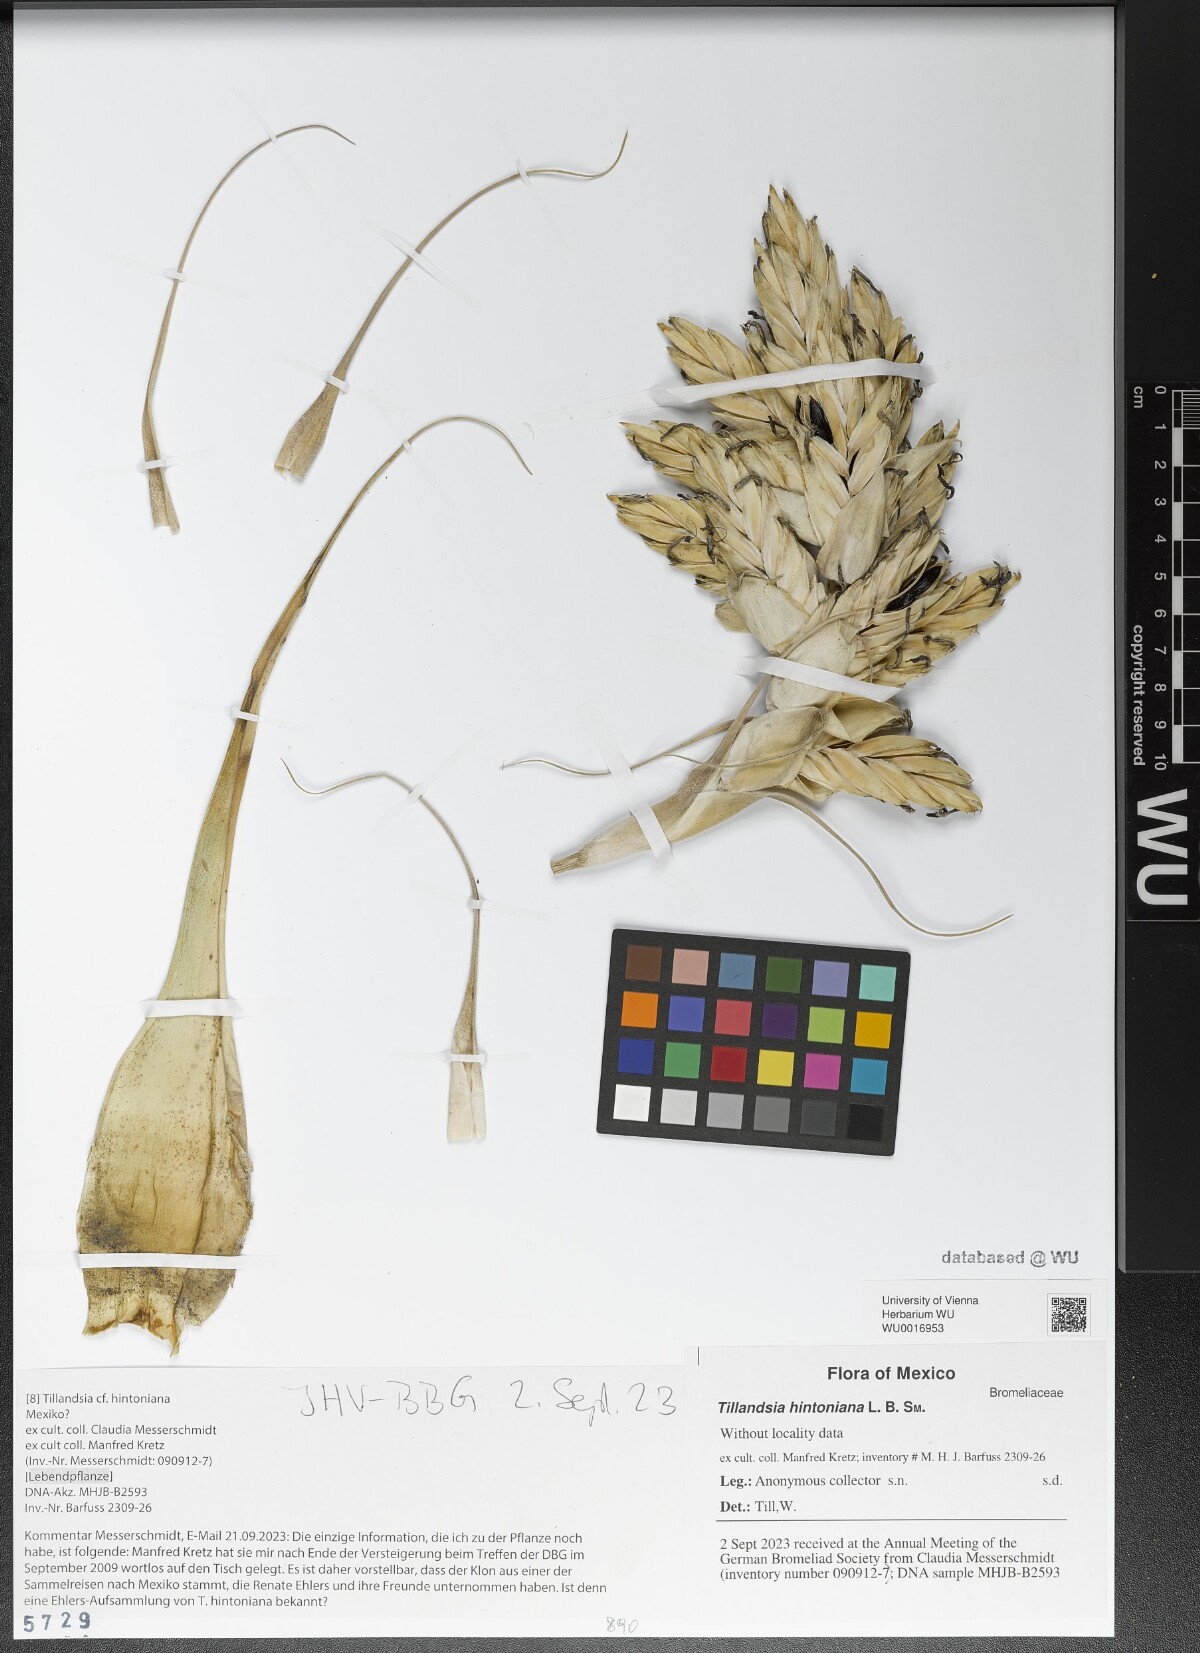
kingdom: Plantae
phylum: Tracheophyta
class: Liliopsida
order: Poales
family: Bromeliaceae
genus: Tillandsia
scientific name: Tillandsia hintoniana
